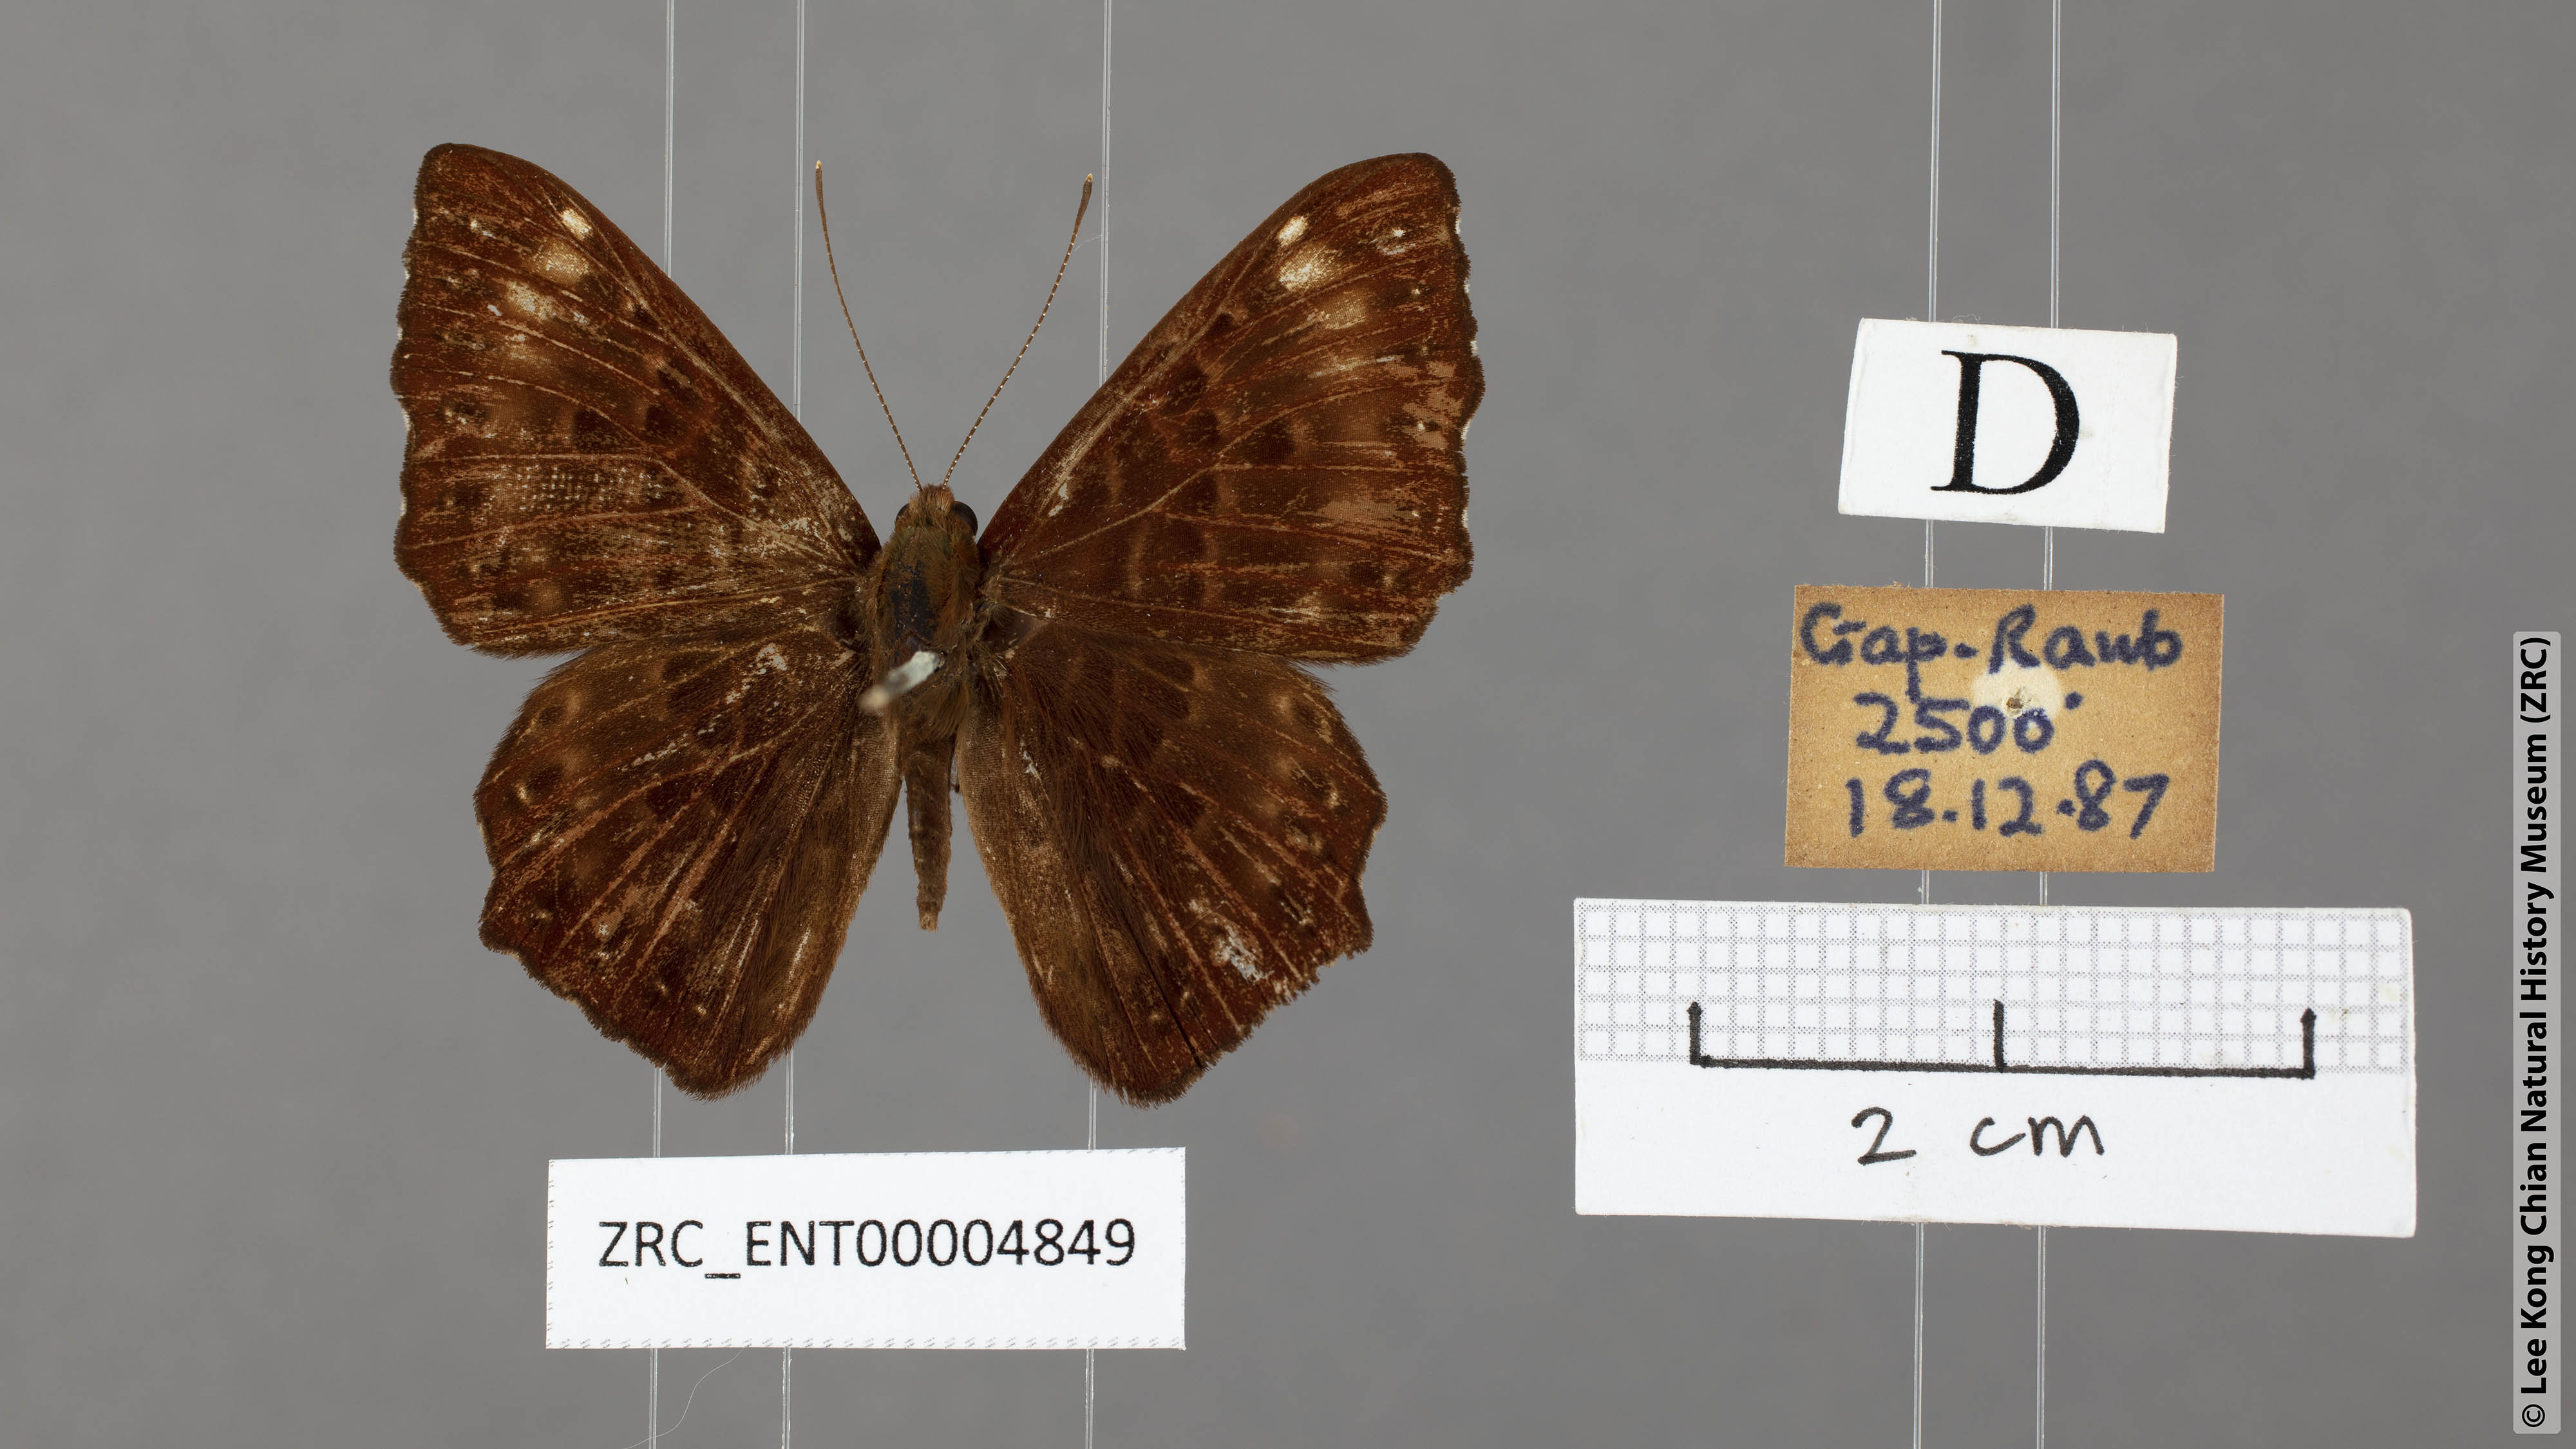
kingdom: Animalia
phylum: Arthropoda
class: Insecta
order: Lepidoptera
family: Riodinidae
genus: Zemeros
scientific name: Zemeros flegyas
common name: Punchinello
